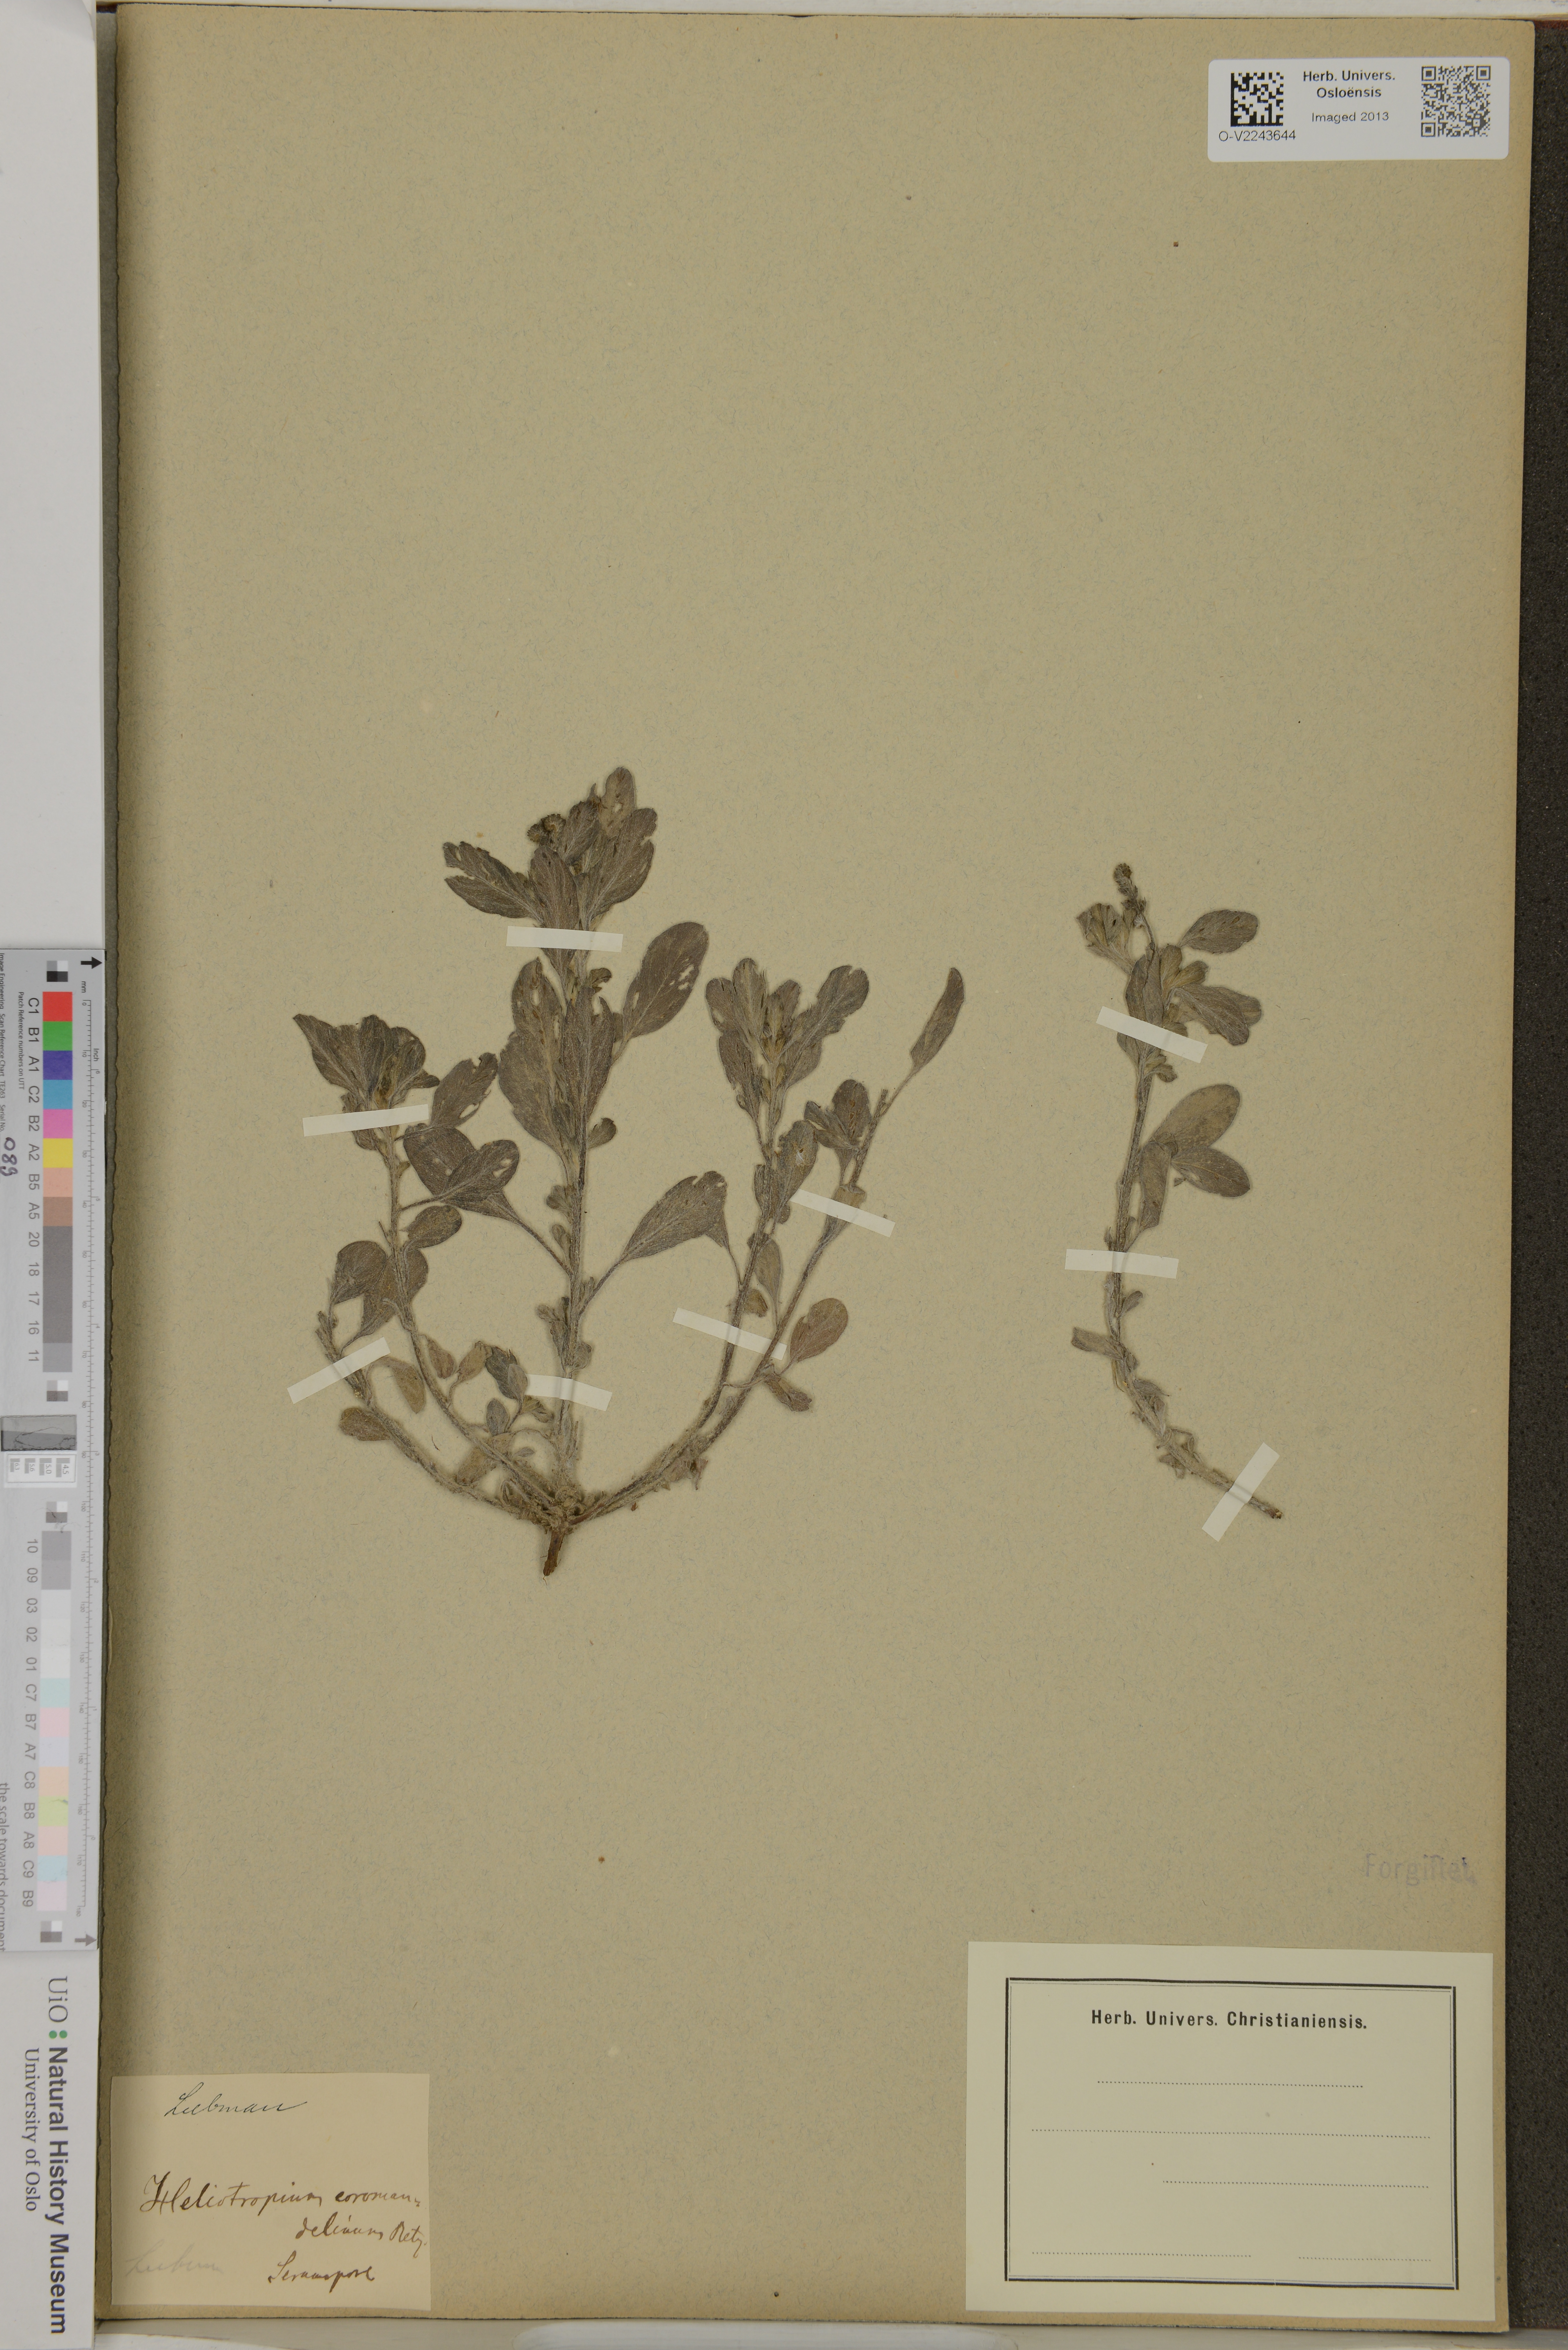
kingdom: Plantae
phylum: Tracheophyta
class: Magnoliopsida
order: Boraginales
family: Heliotropiaceae
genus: Heliotropium
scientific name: Heliotropium supinum
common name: Dwarf heliotrope
